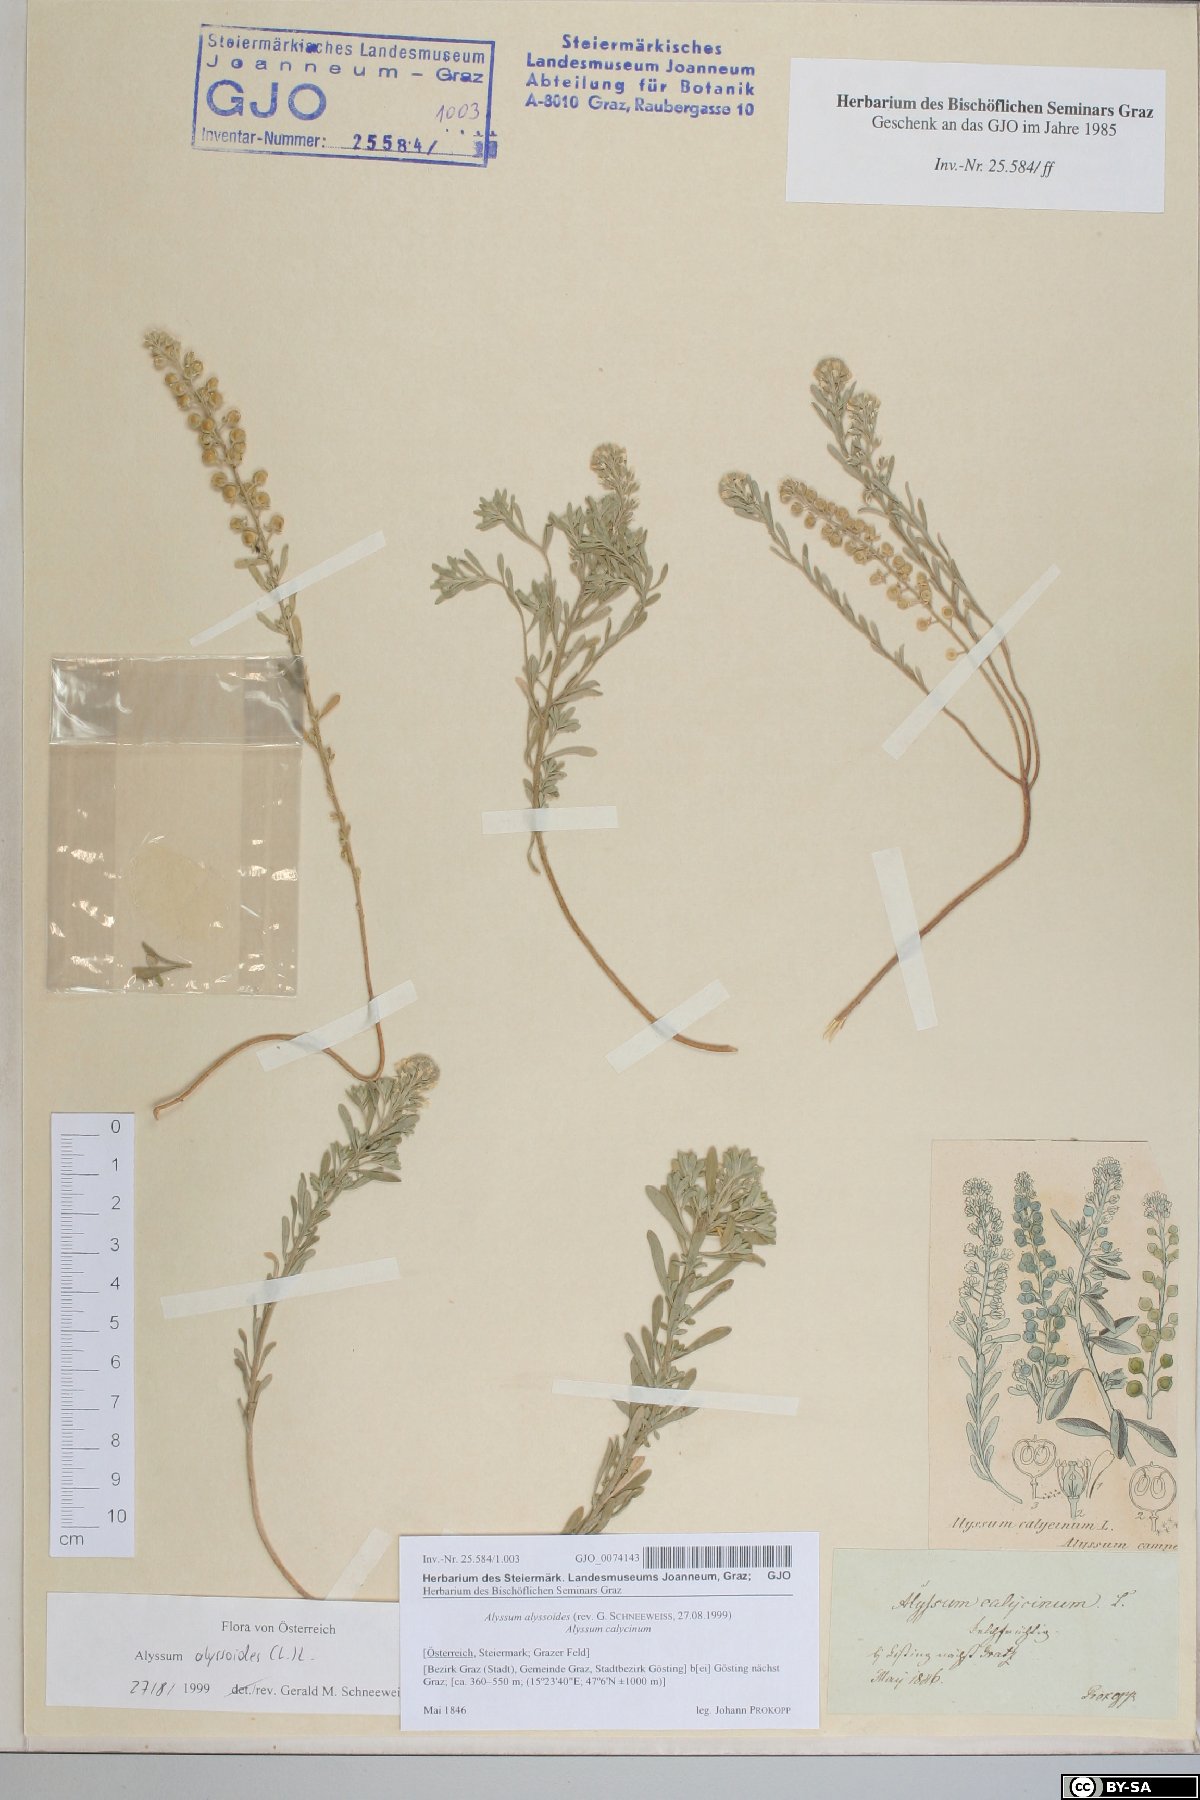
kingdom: Plantae
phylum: Tracheophyta
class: Magnoliopsida
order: Brassicales
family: Brassicaceae
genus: Alyssum
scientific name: Alyssum alyssoides
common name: Small alison
